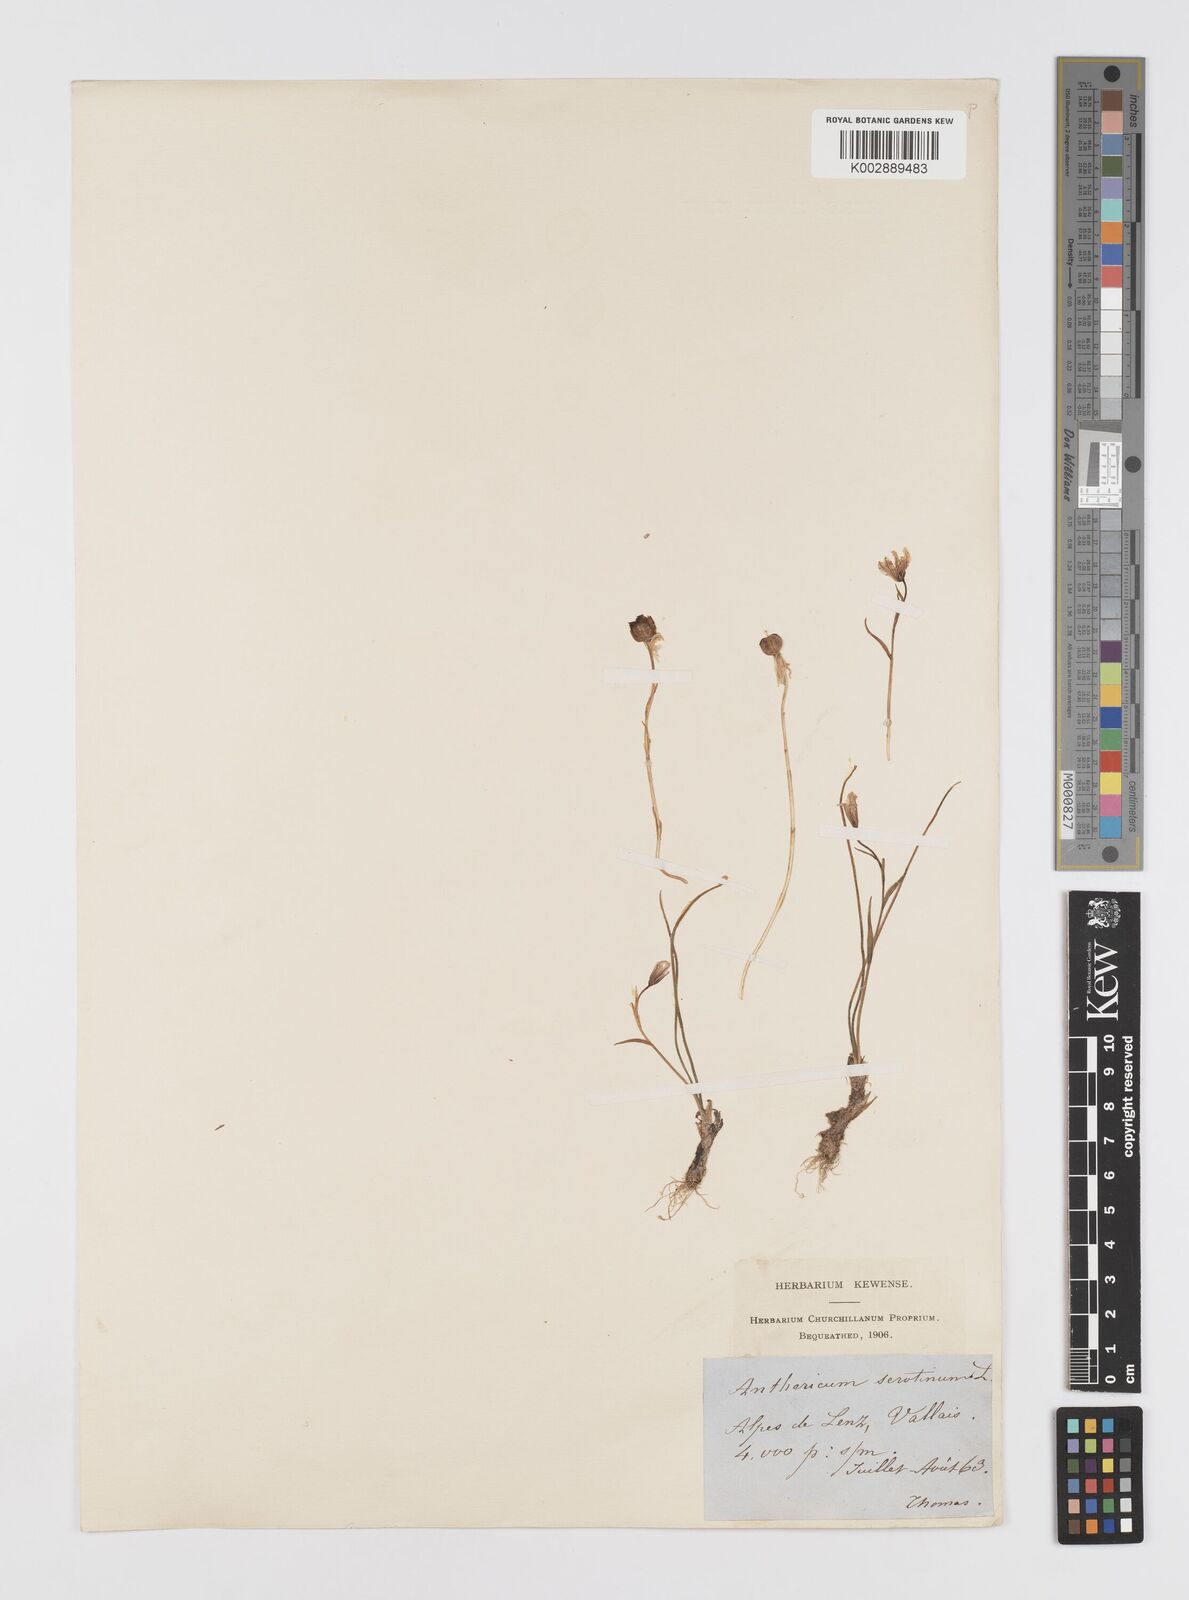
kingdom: Plantae
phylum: Tracheophyta
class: Liliopsida
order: Liliales
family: Liliaceae
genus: Gagea
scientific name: Gagea
